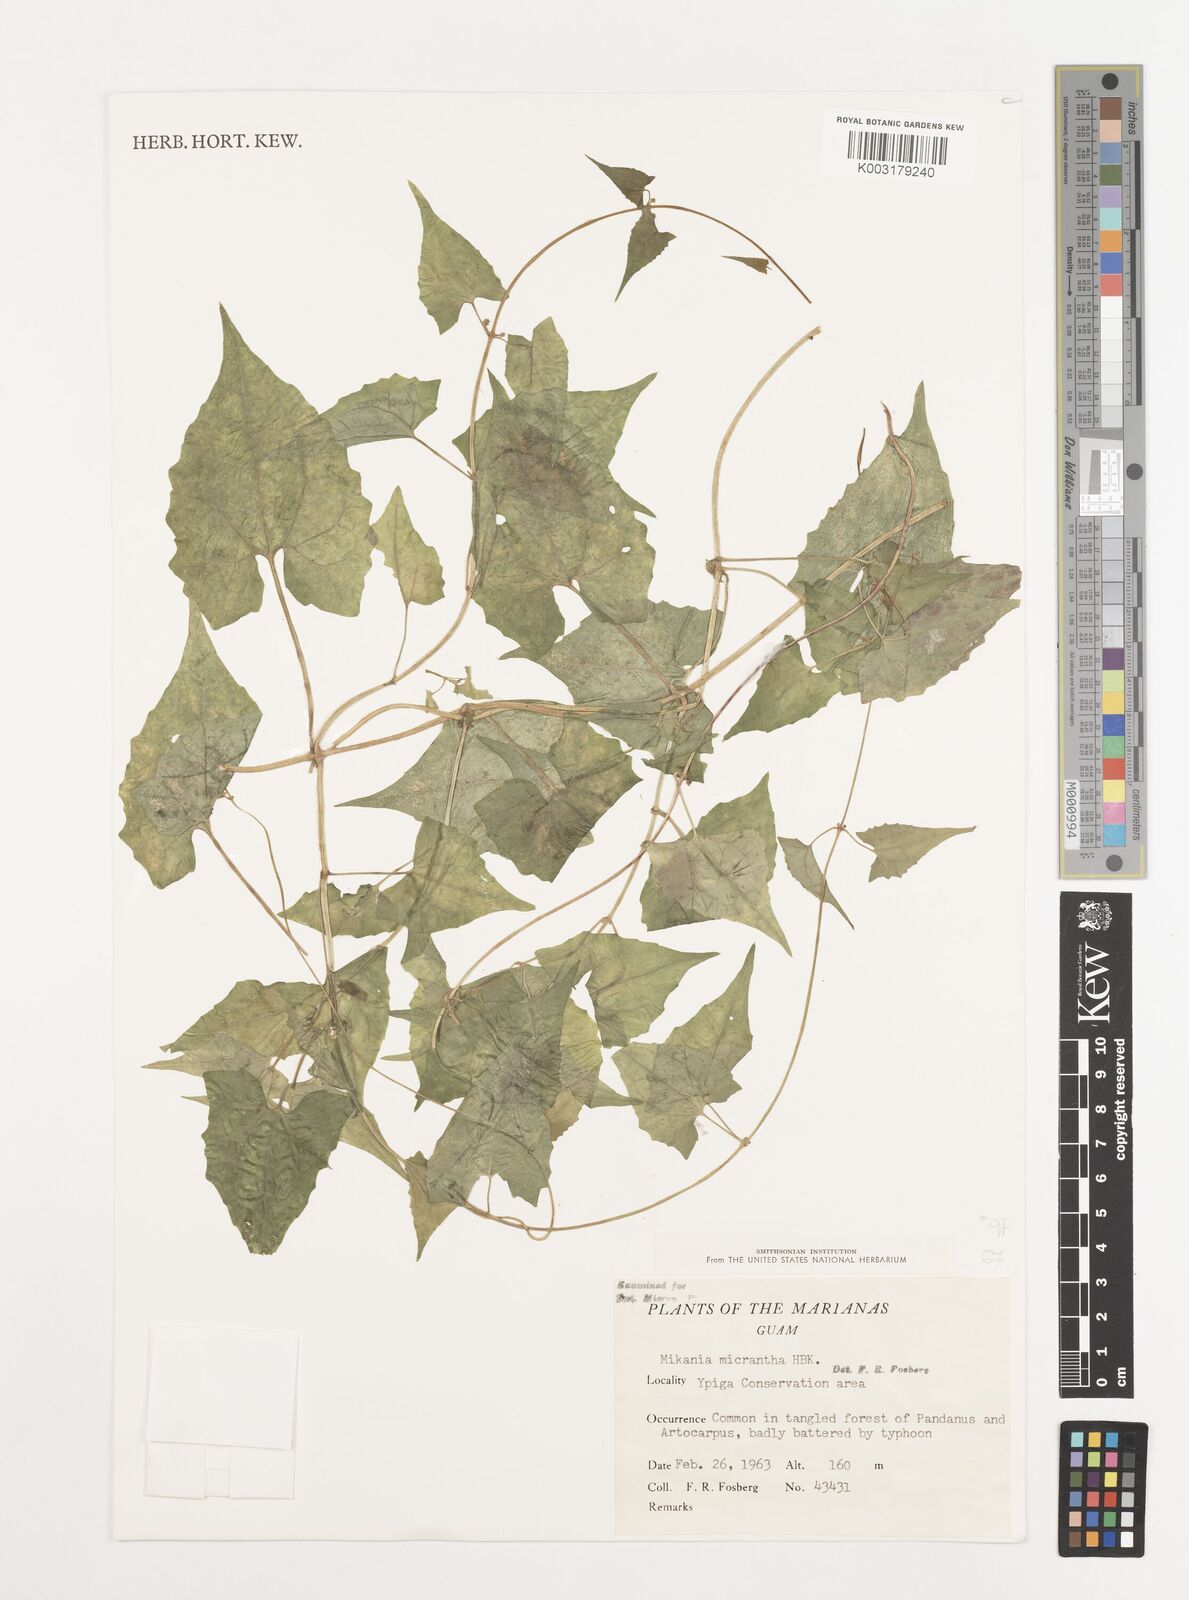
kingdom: Plantae
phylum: Tracheophyta
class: Magnoliopsida
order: Asterales
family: Asteraceae
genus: Mikania
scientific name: Mikania micrantha
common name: Mile-a-minute
